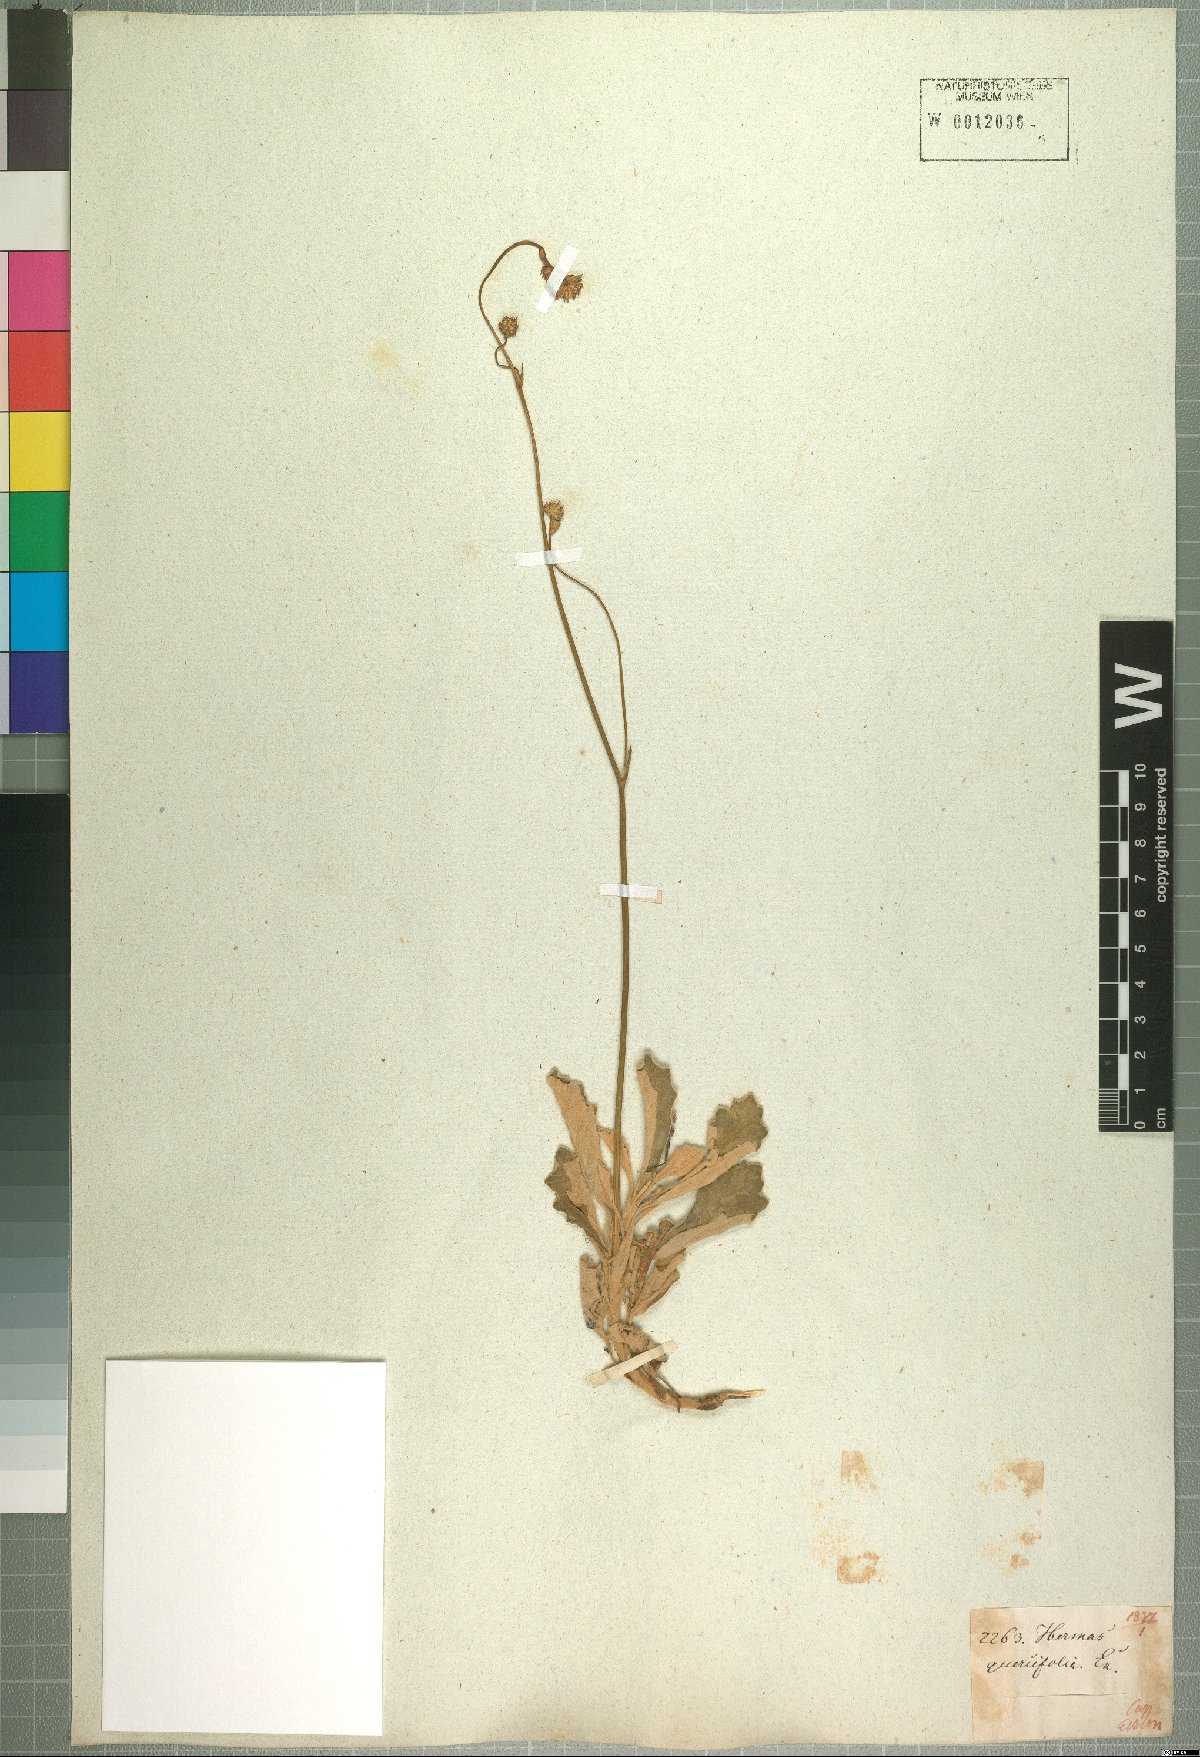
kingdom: Plantae
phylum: Tracheophyta
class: Magnoliopsida
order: Apiales
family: Apiaceae
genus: Hermas
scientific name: Hermas quinquedentata
